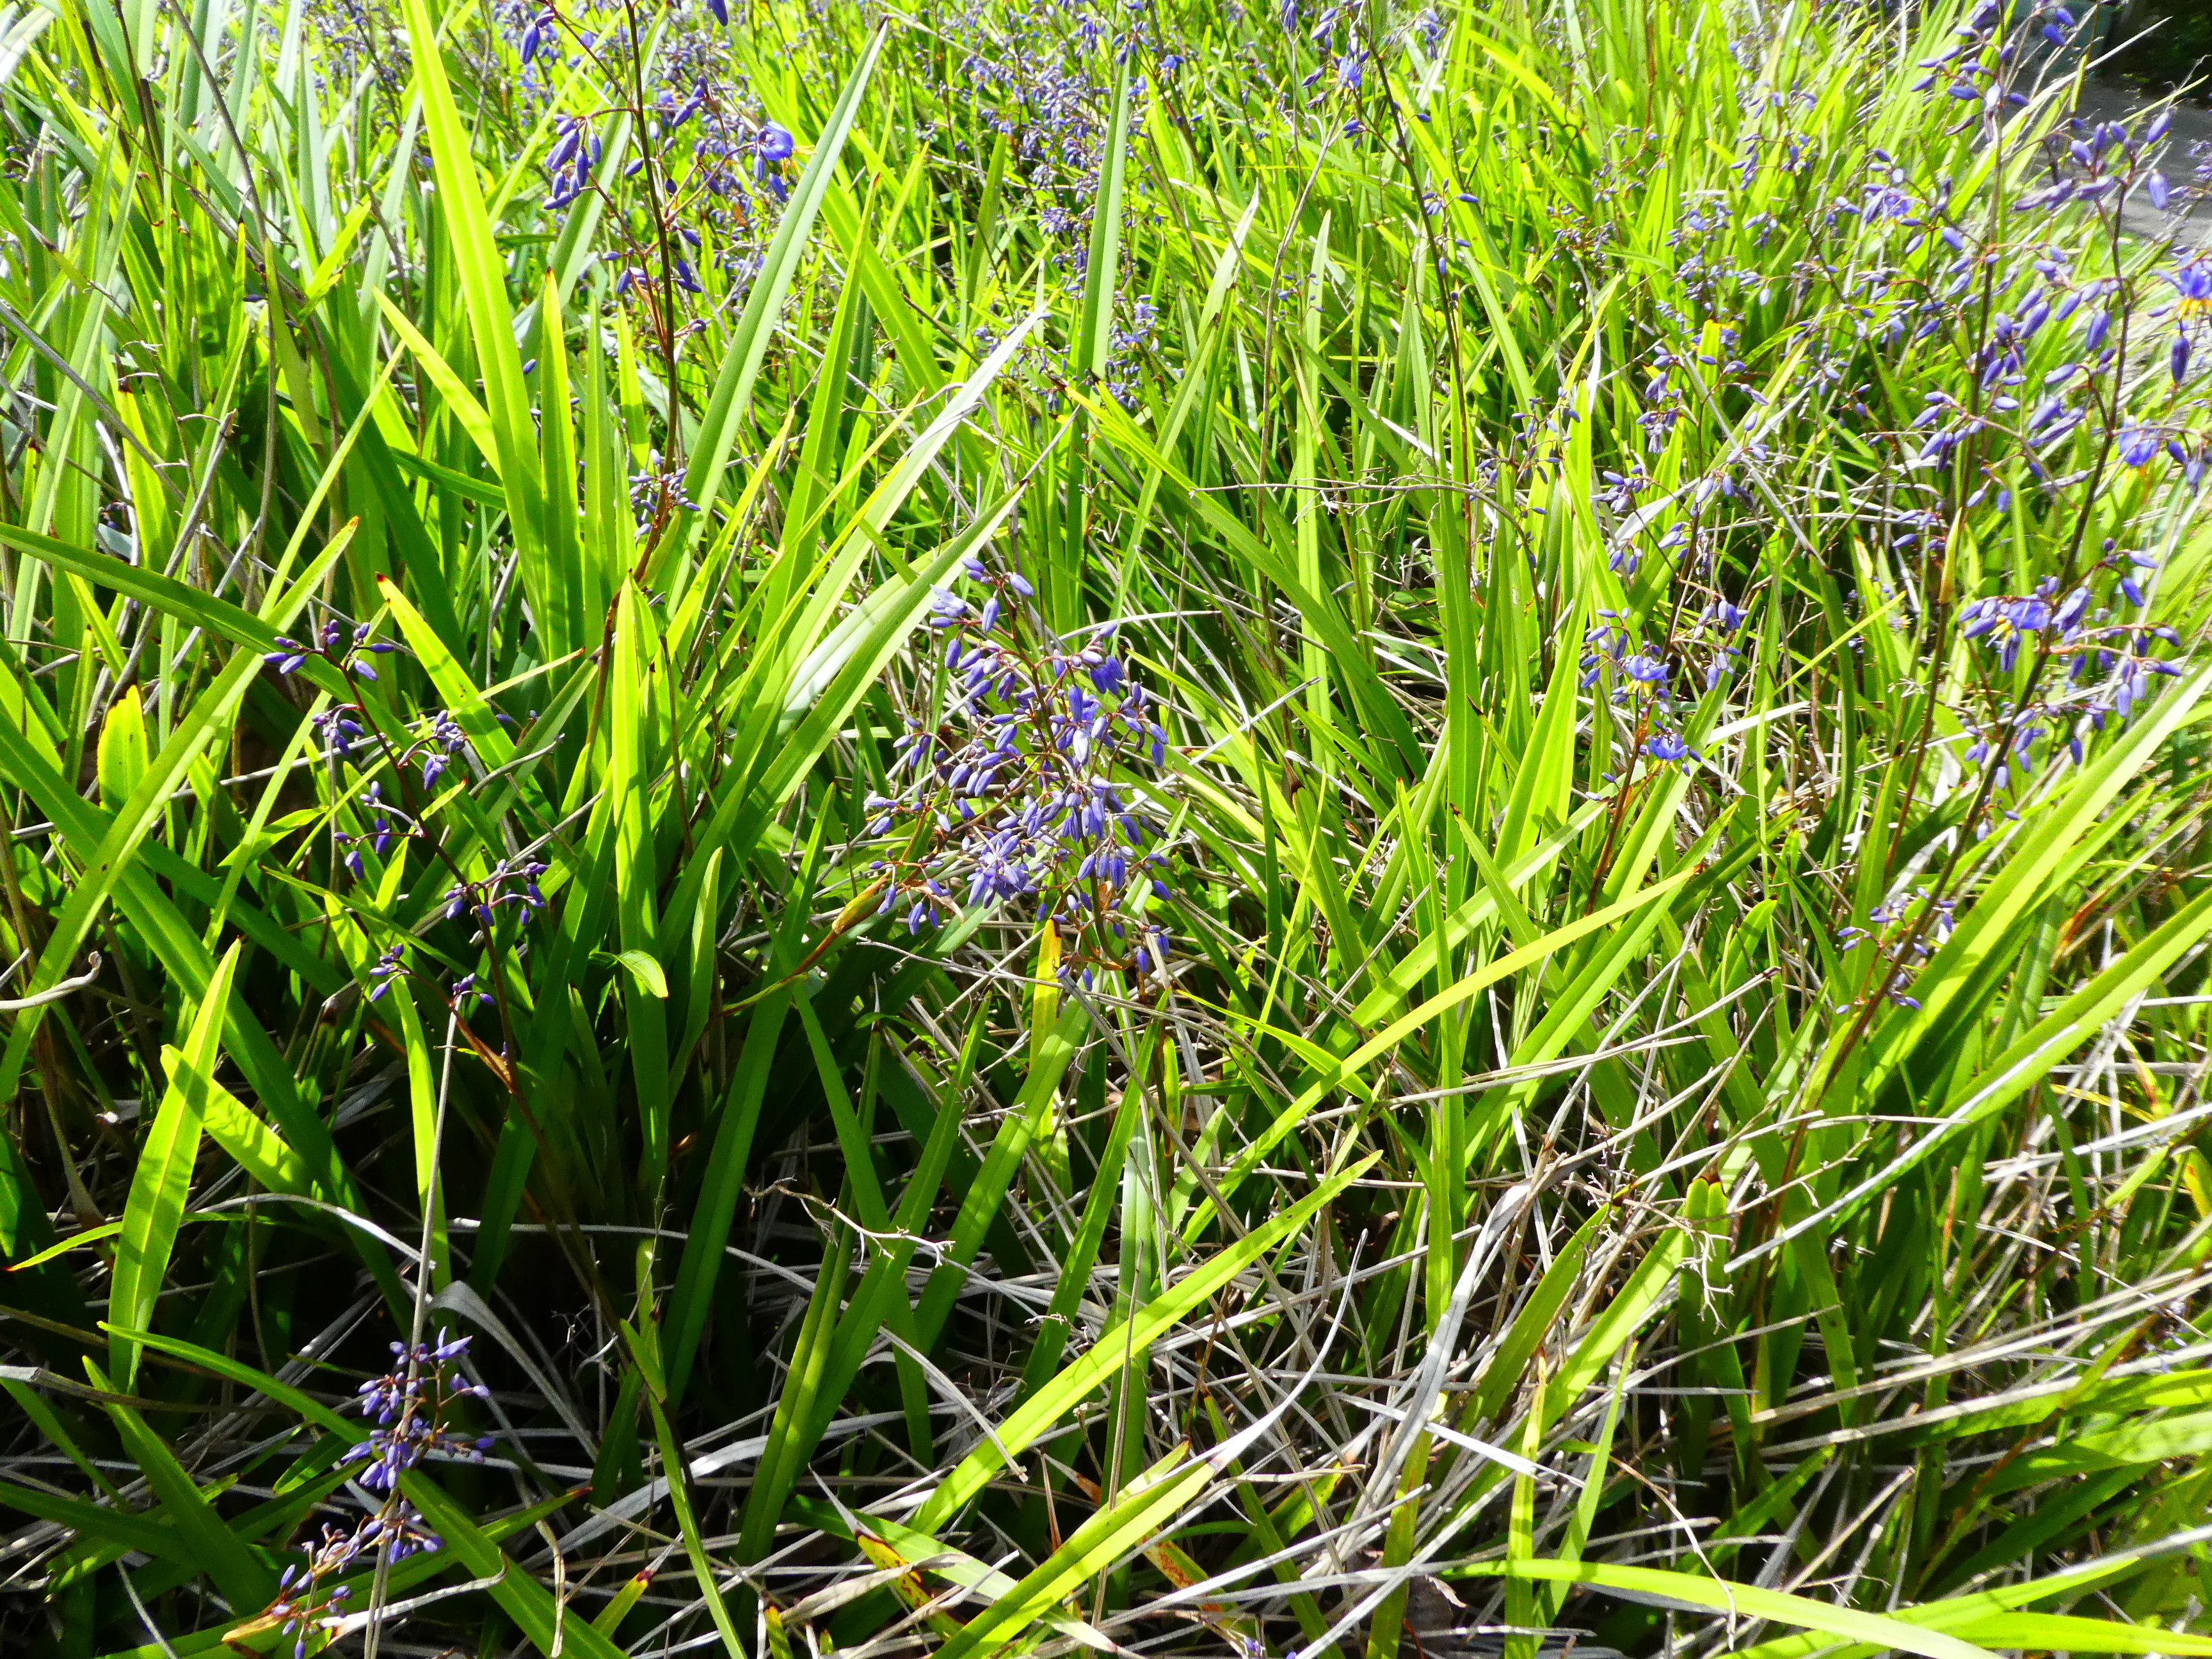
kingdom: Plantae
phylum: Tracheophyta
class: Liliopsida
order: Asparagales
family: Asphodelaceae
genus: Dianella
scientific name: Dianella amoena
